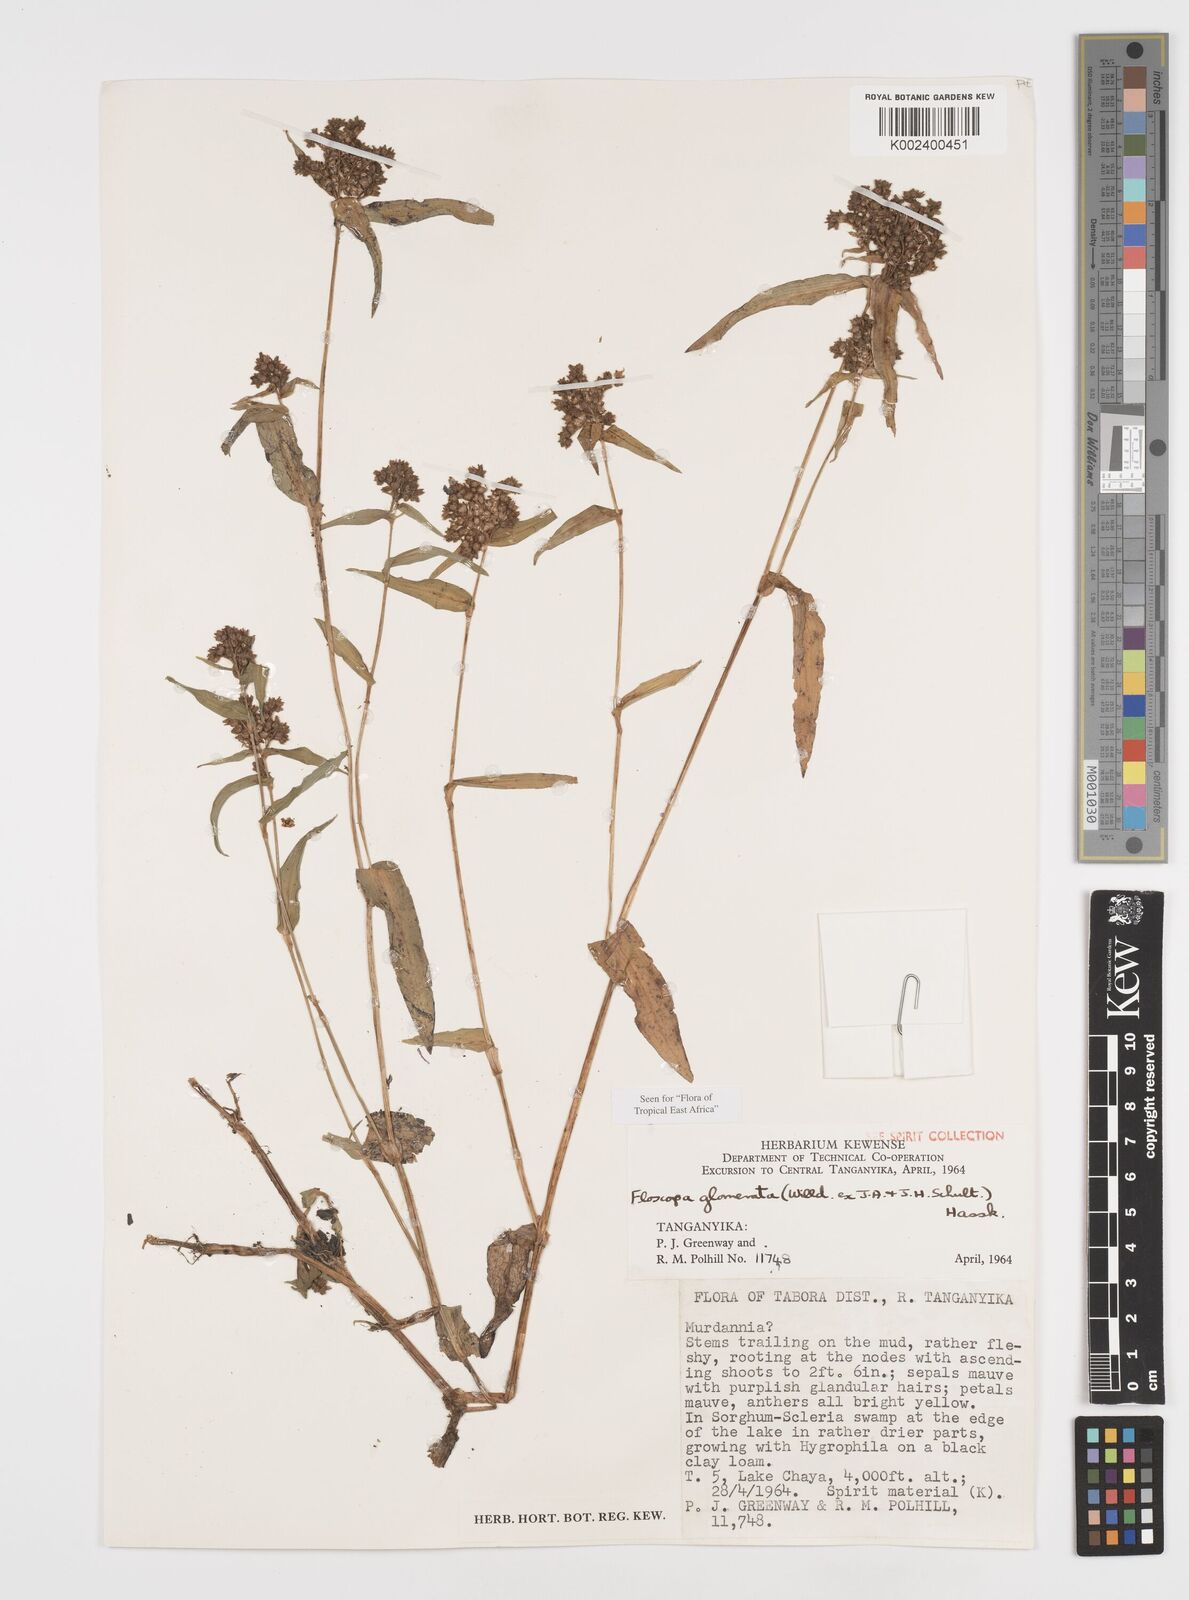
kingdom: Plantae
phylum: Tracheophyta
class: Liliopsida
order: Commelinales
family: Commelinaceae
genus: Floscopa
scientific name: Floscopa glomerata
